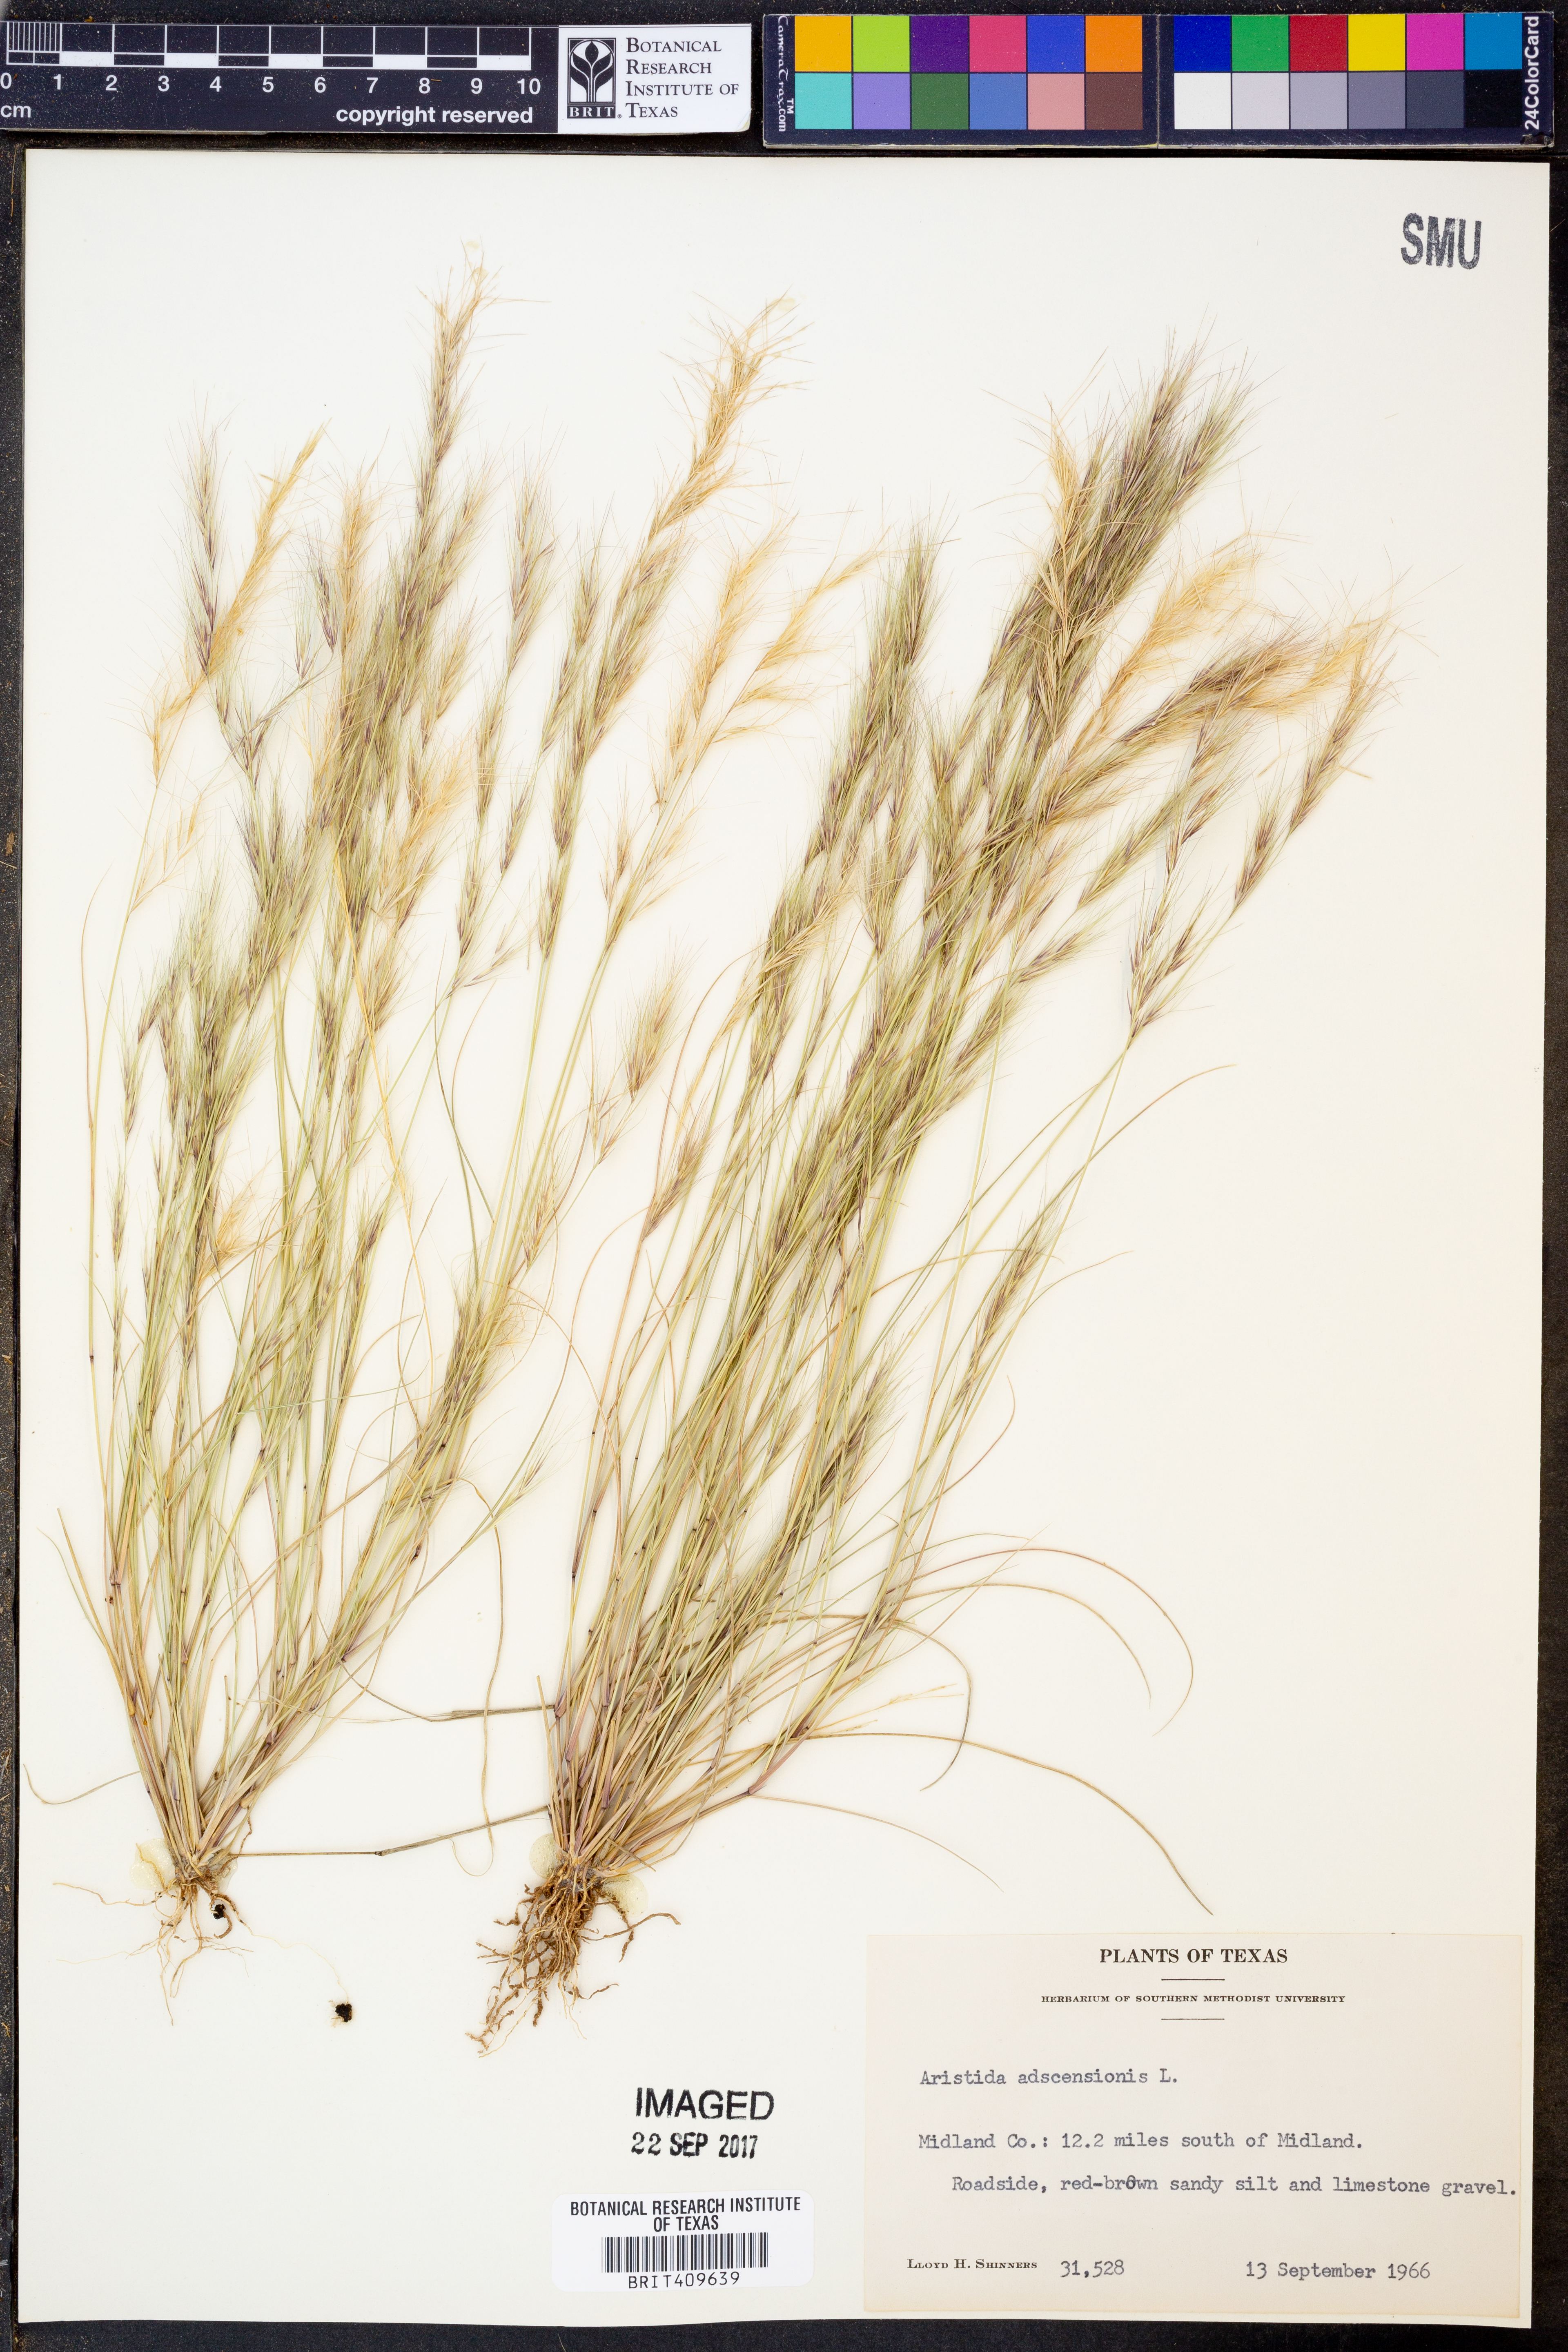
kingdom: Plantae
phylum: Tracheophyta
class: Liliopsida
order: Poales
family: Poaceae
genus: Aristida
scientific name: Aristida adscensionis
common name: Sixweeks threeawn
